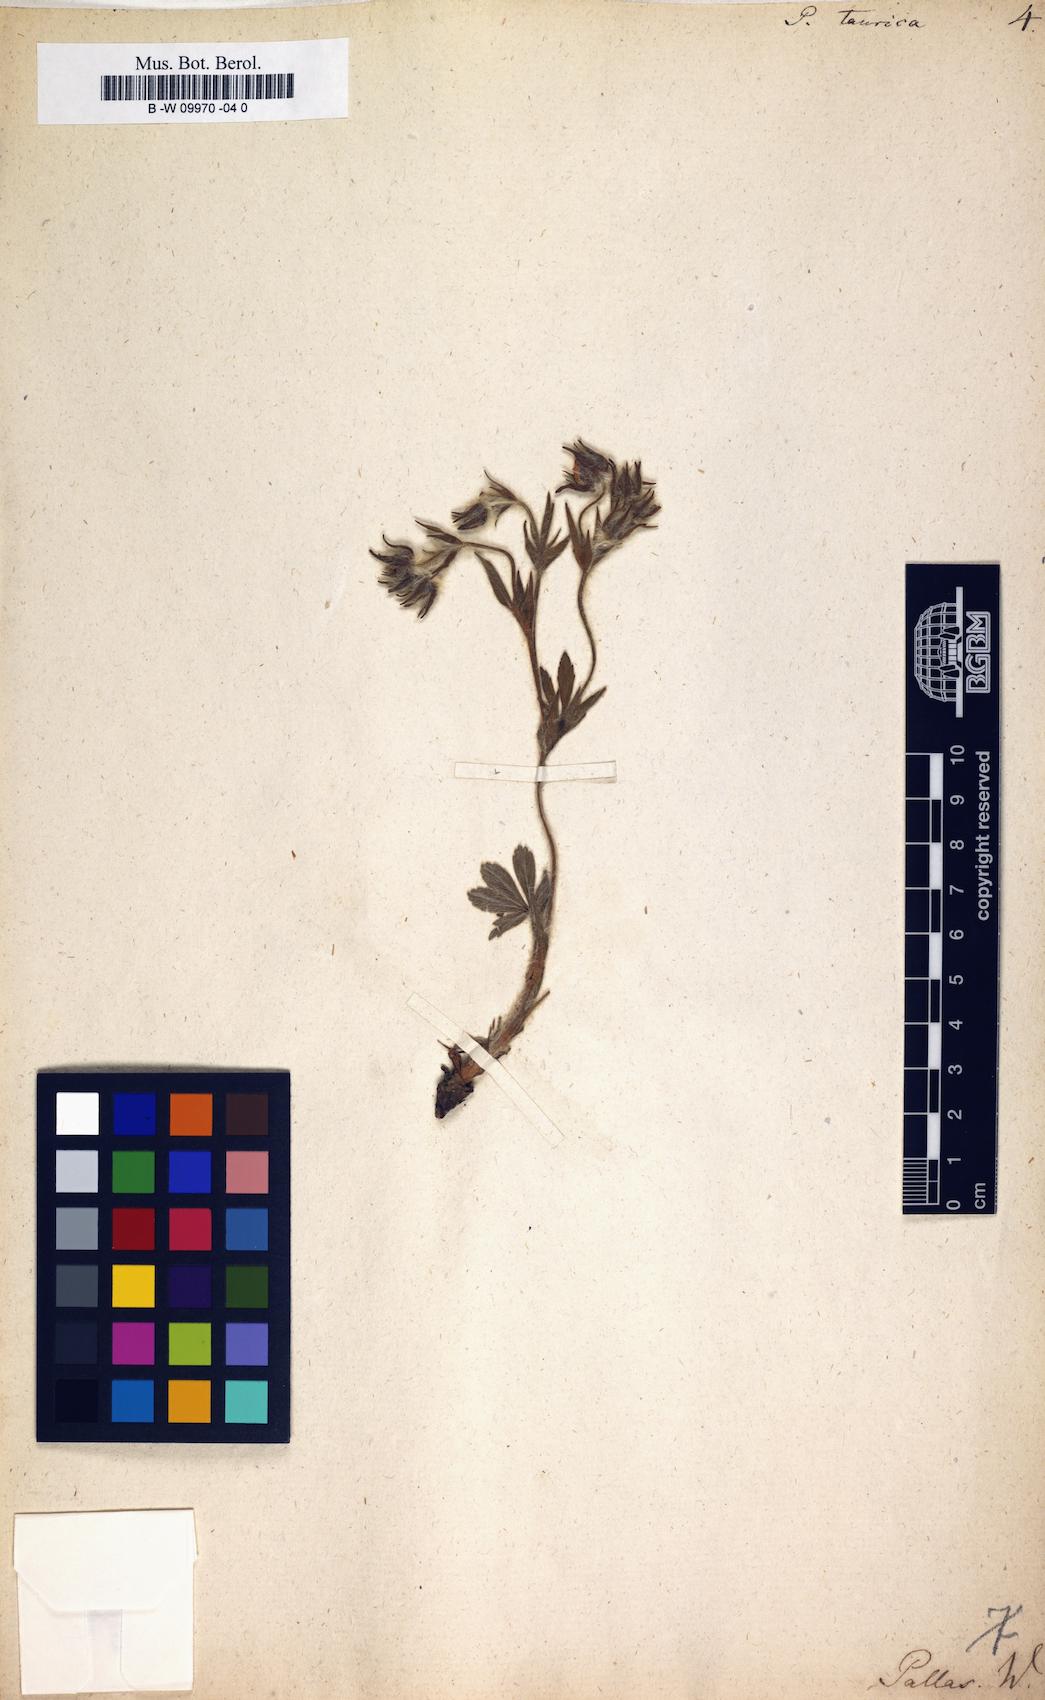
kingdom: Plantae
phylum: Tracheophyta
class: Magnoliopsida
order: Rosales
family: Rosaceae
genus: Potentilla
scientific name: Potentilla taurica
